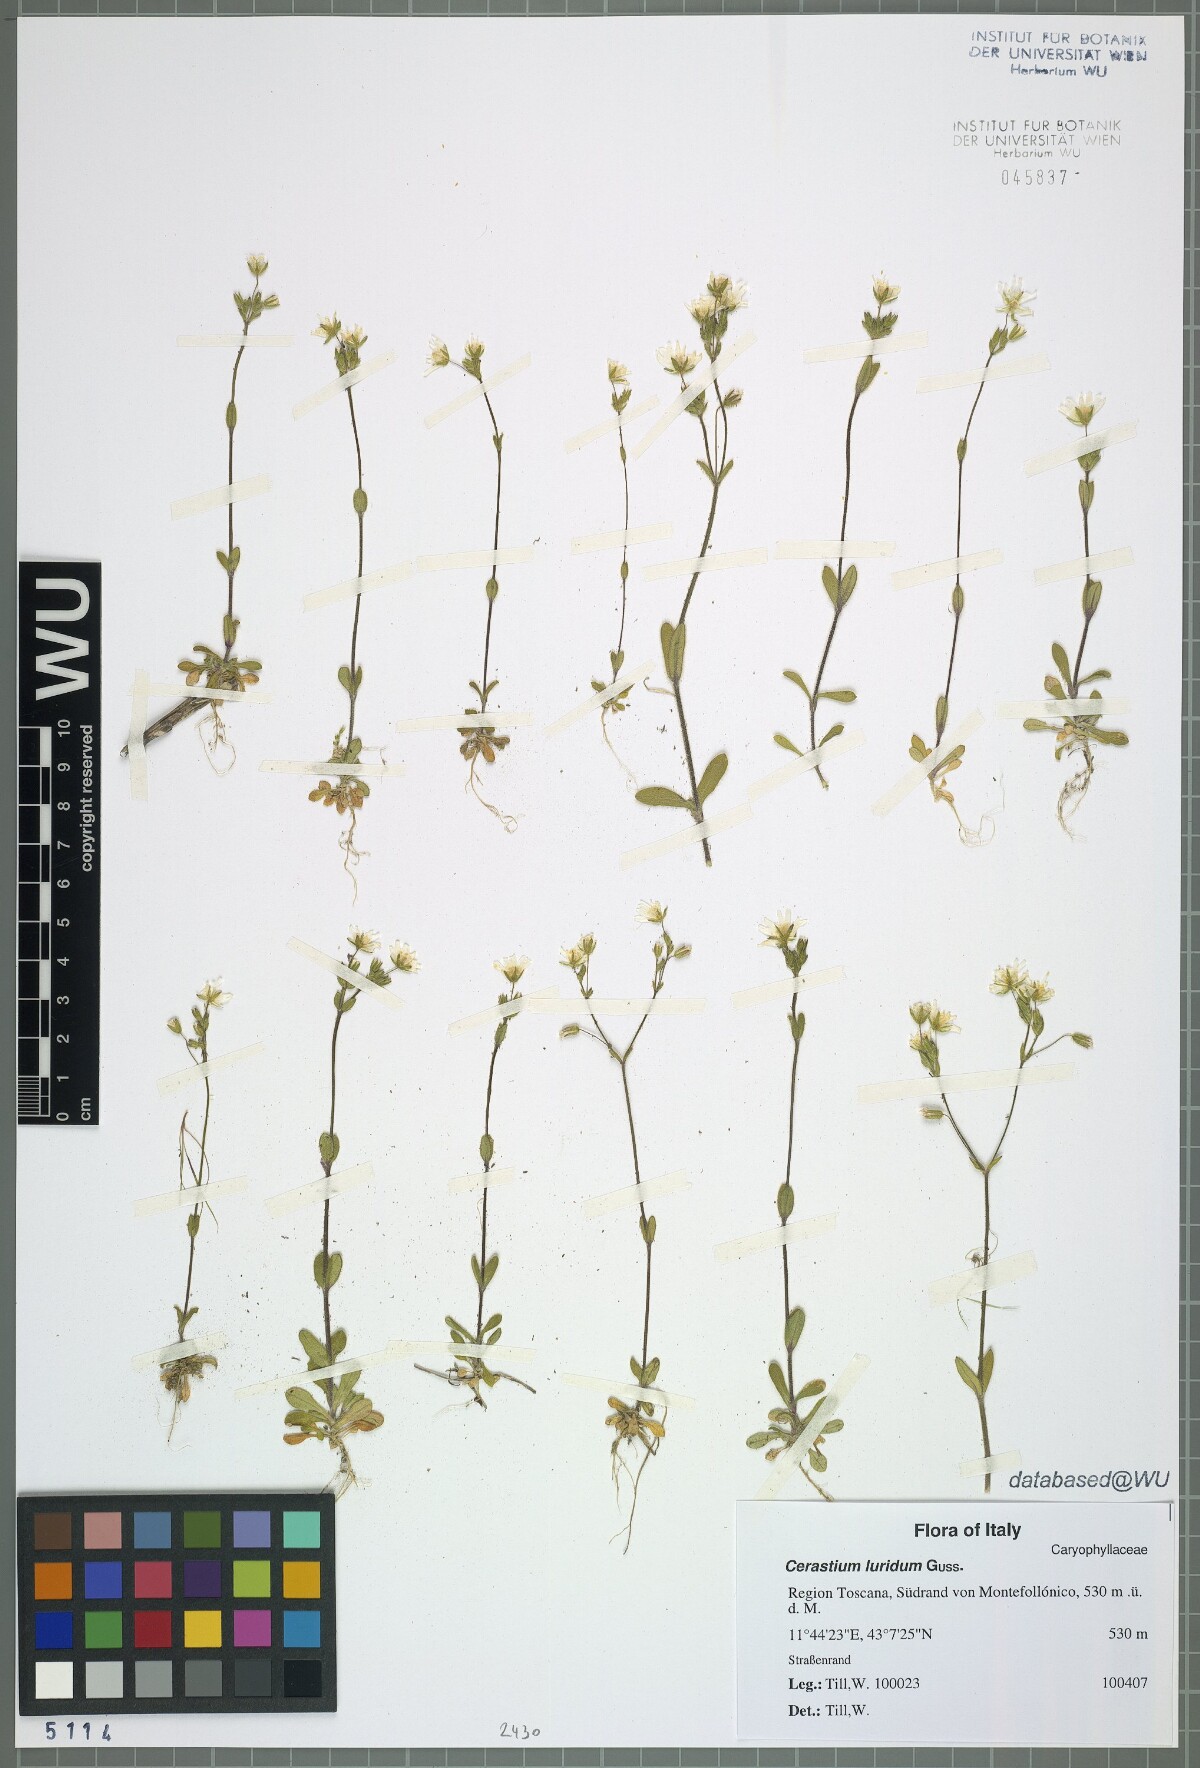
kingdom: Plantae
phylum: Tracheophyta
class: Magnoliopsida
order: Caryophyllales
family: Caryophyllaceae
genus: Cerastium
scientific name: Cerastium brachypetalum
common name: Grey mouse-ear
